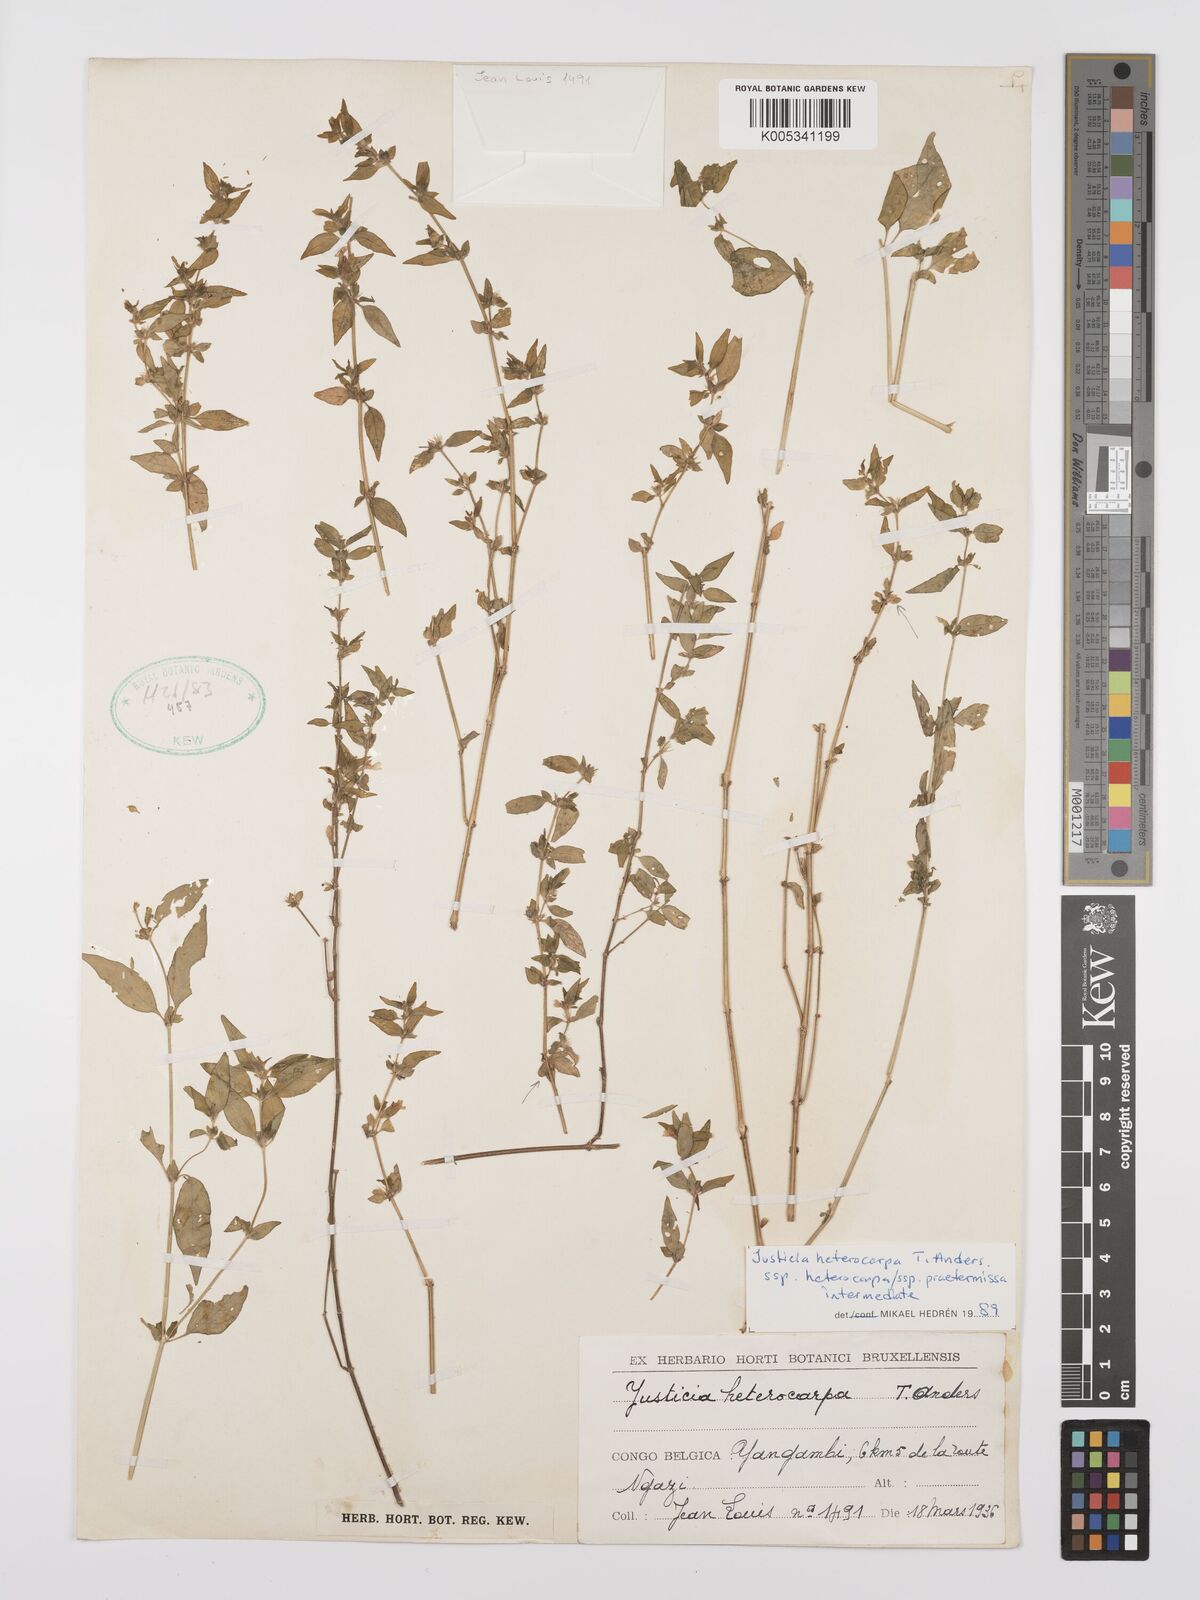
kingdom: Plantae
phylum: Tracheophyta
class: Magnoliopsida
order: Lamiales
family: Acanthaceae
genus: Justicia
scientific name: Justicia heterocarpa
